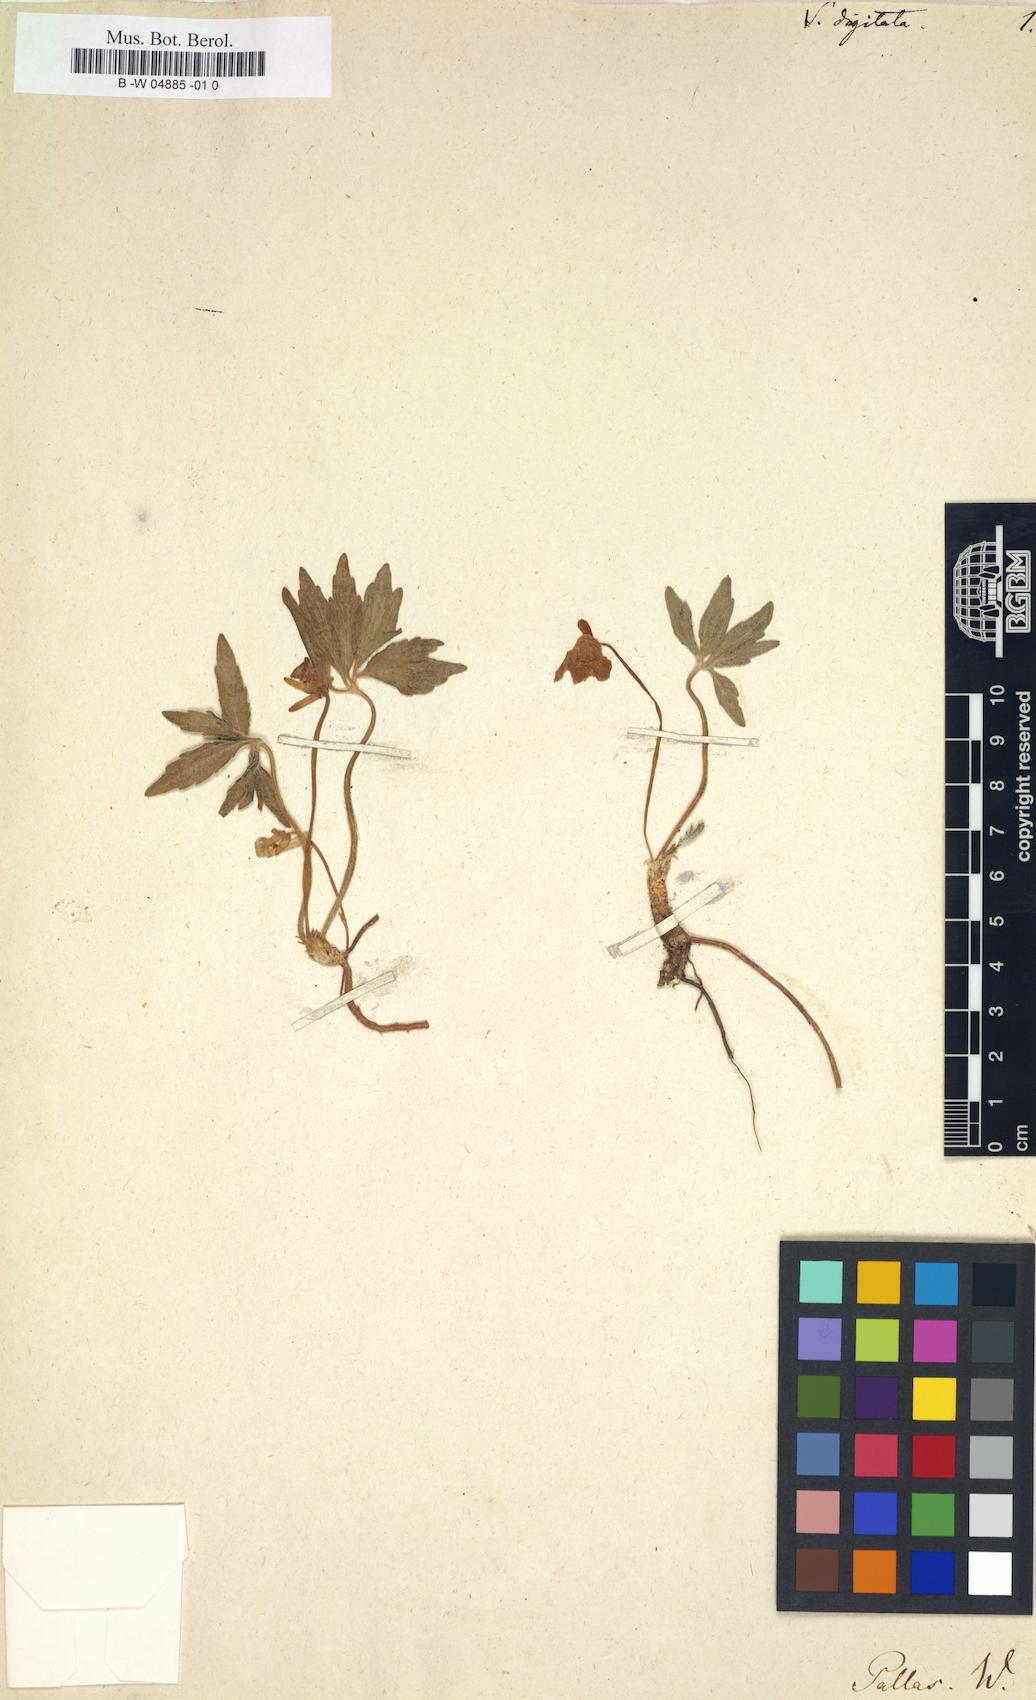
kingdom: Plantae
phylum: Tracheophyta
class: Magnoliopsida
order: Malpighiales
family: Violaceae
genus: Viola
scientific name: Viola
